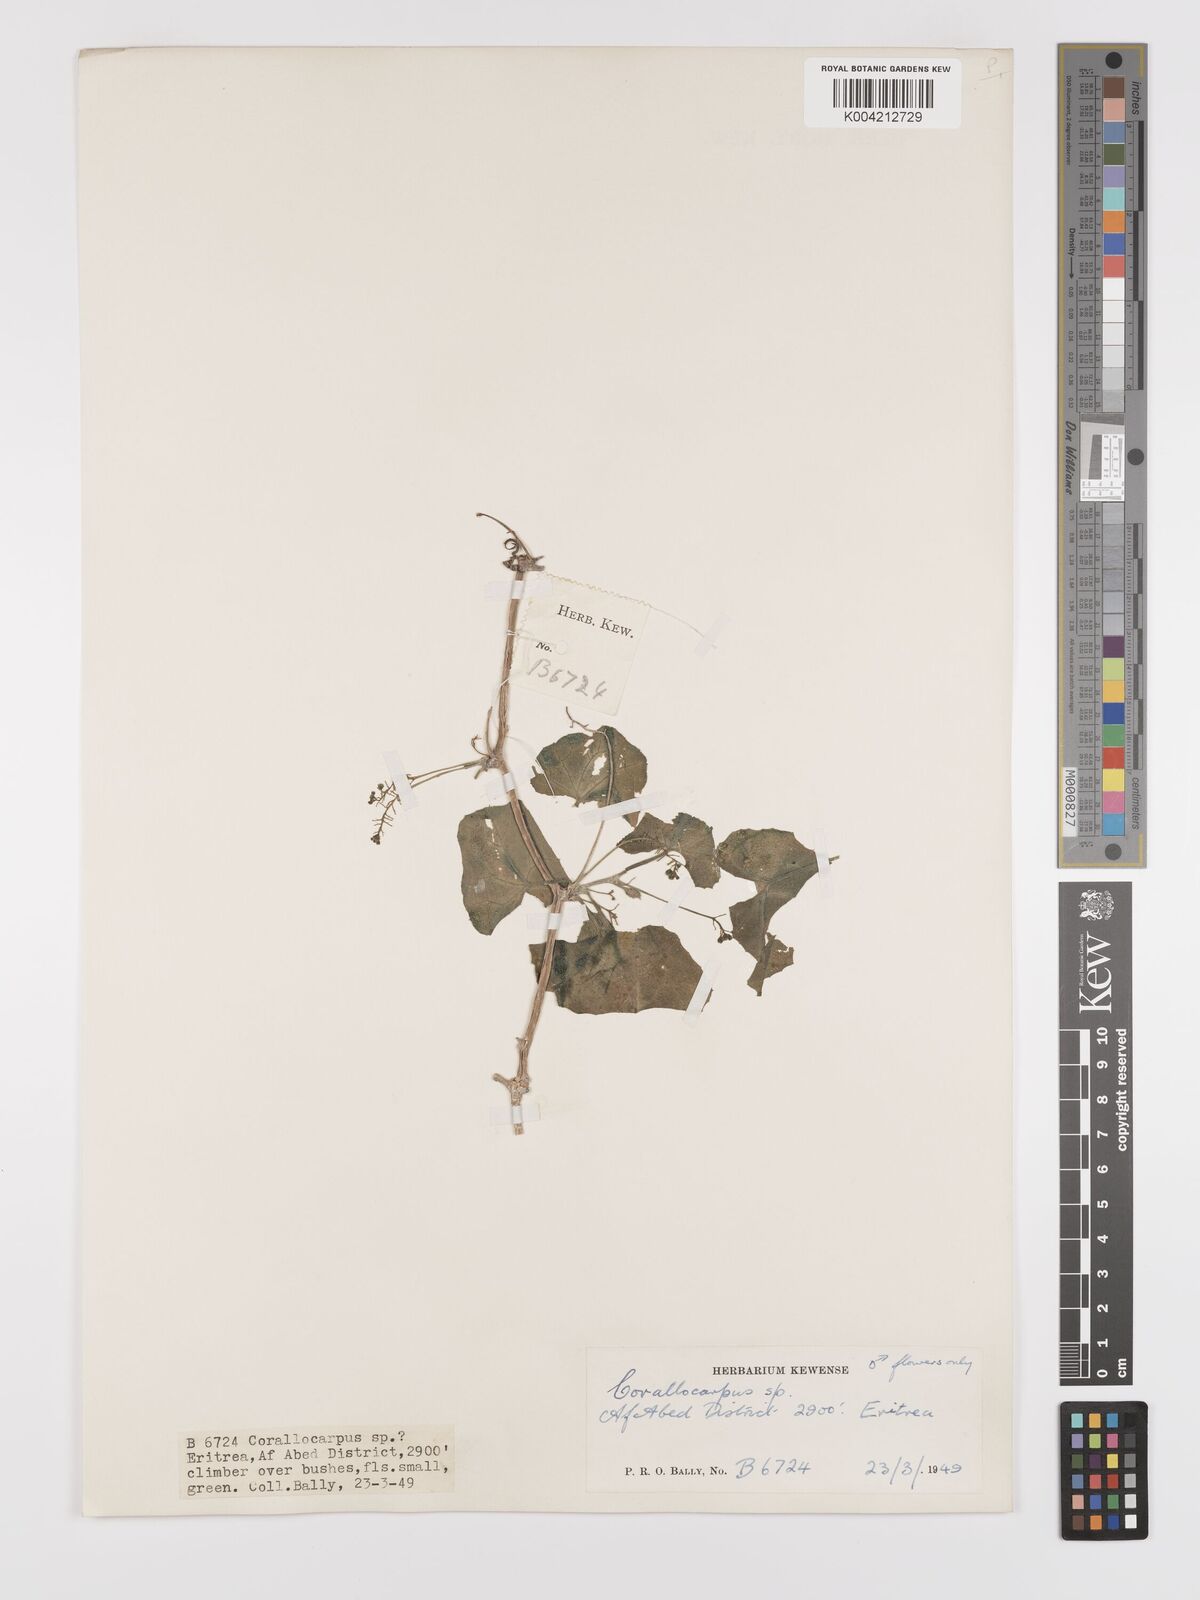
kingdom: Plantae
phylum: Tracheophyta
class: Magnoliopsida
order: Cucurbitales
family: Cucurbitaceae
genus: Corallocarpus
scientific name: Corallocarpus schimperi
